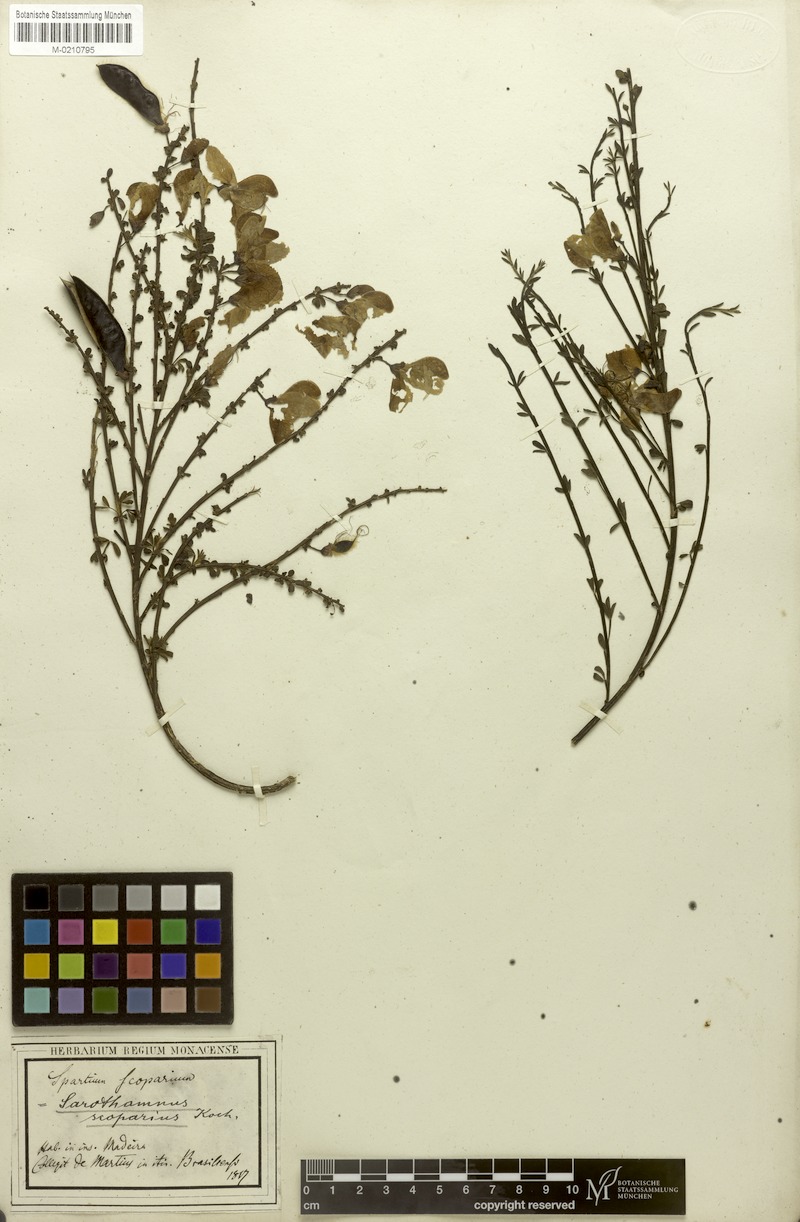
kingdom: Plantae
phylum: Tracheophyta
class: Magnoliopsida
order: Fabales
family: Fabaceae
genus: Cytisus
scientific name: Cytisus scoparius
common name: Scotch broom
